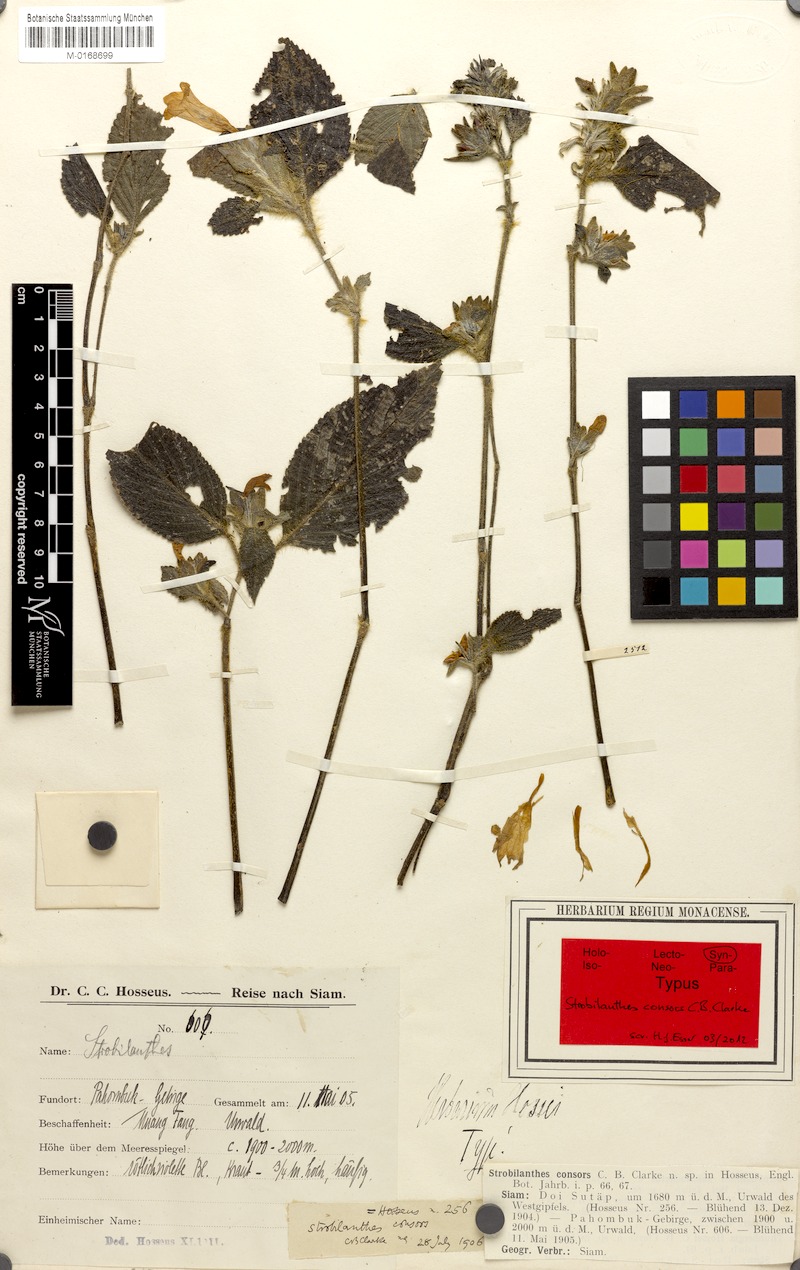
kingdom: Plantae
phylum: Tracheophyta
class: Magnoliopsida
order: Lamiales
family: Acanthaceae
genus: Strobilanthes
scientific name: Strobilanthes hossei
